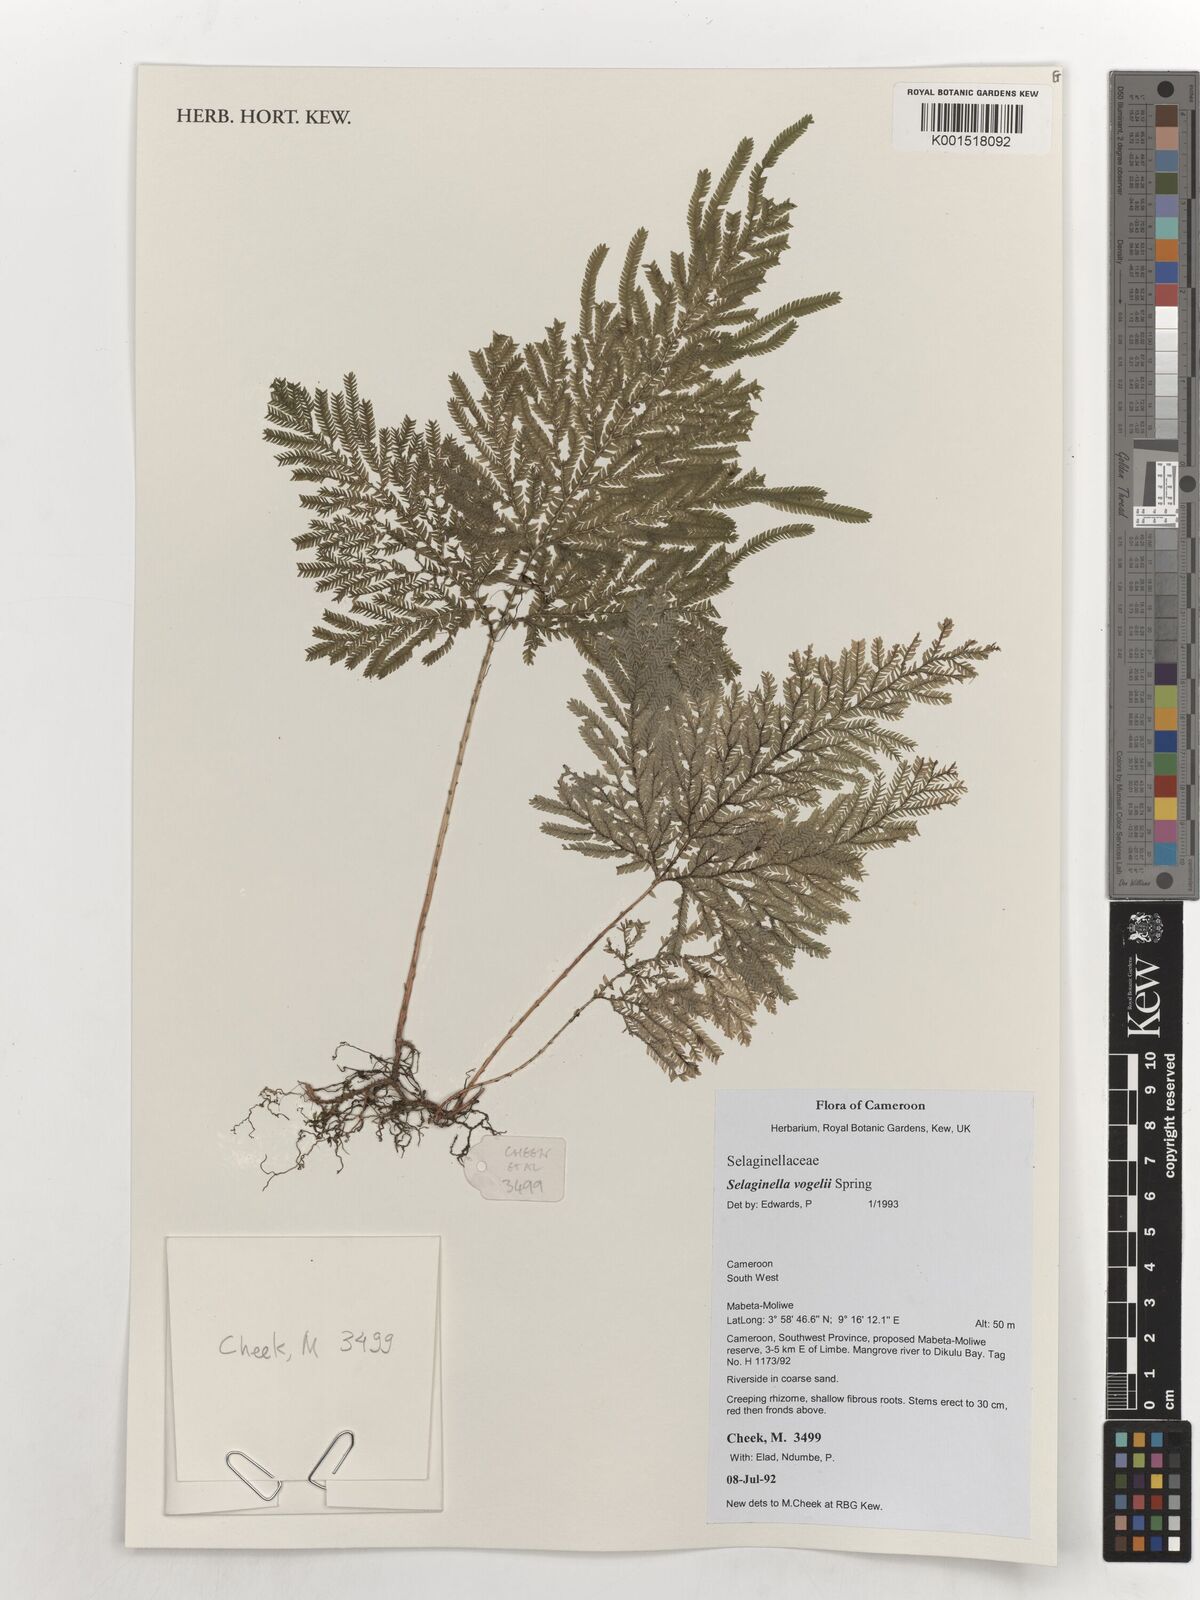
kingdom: Plantae
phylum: Tracheophyta
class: Lycopodiopsida
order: Selaginellales
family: Selaginellaceae
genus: Selaginella
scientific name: Selaginella vogelii
